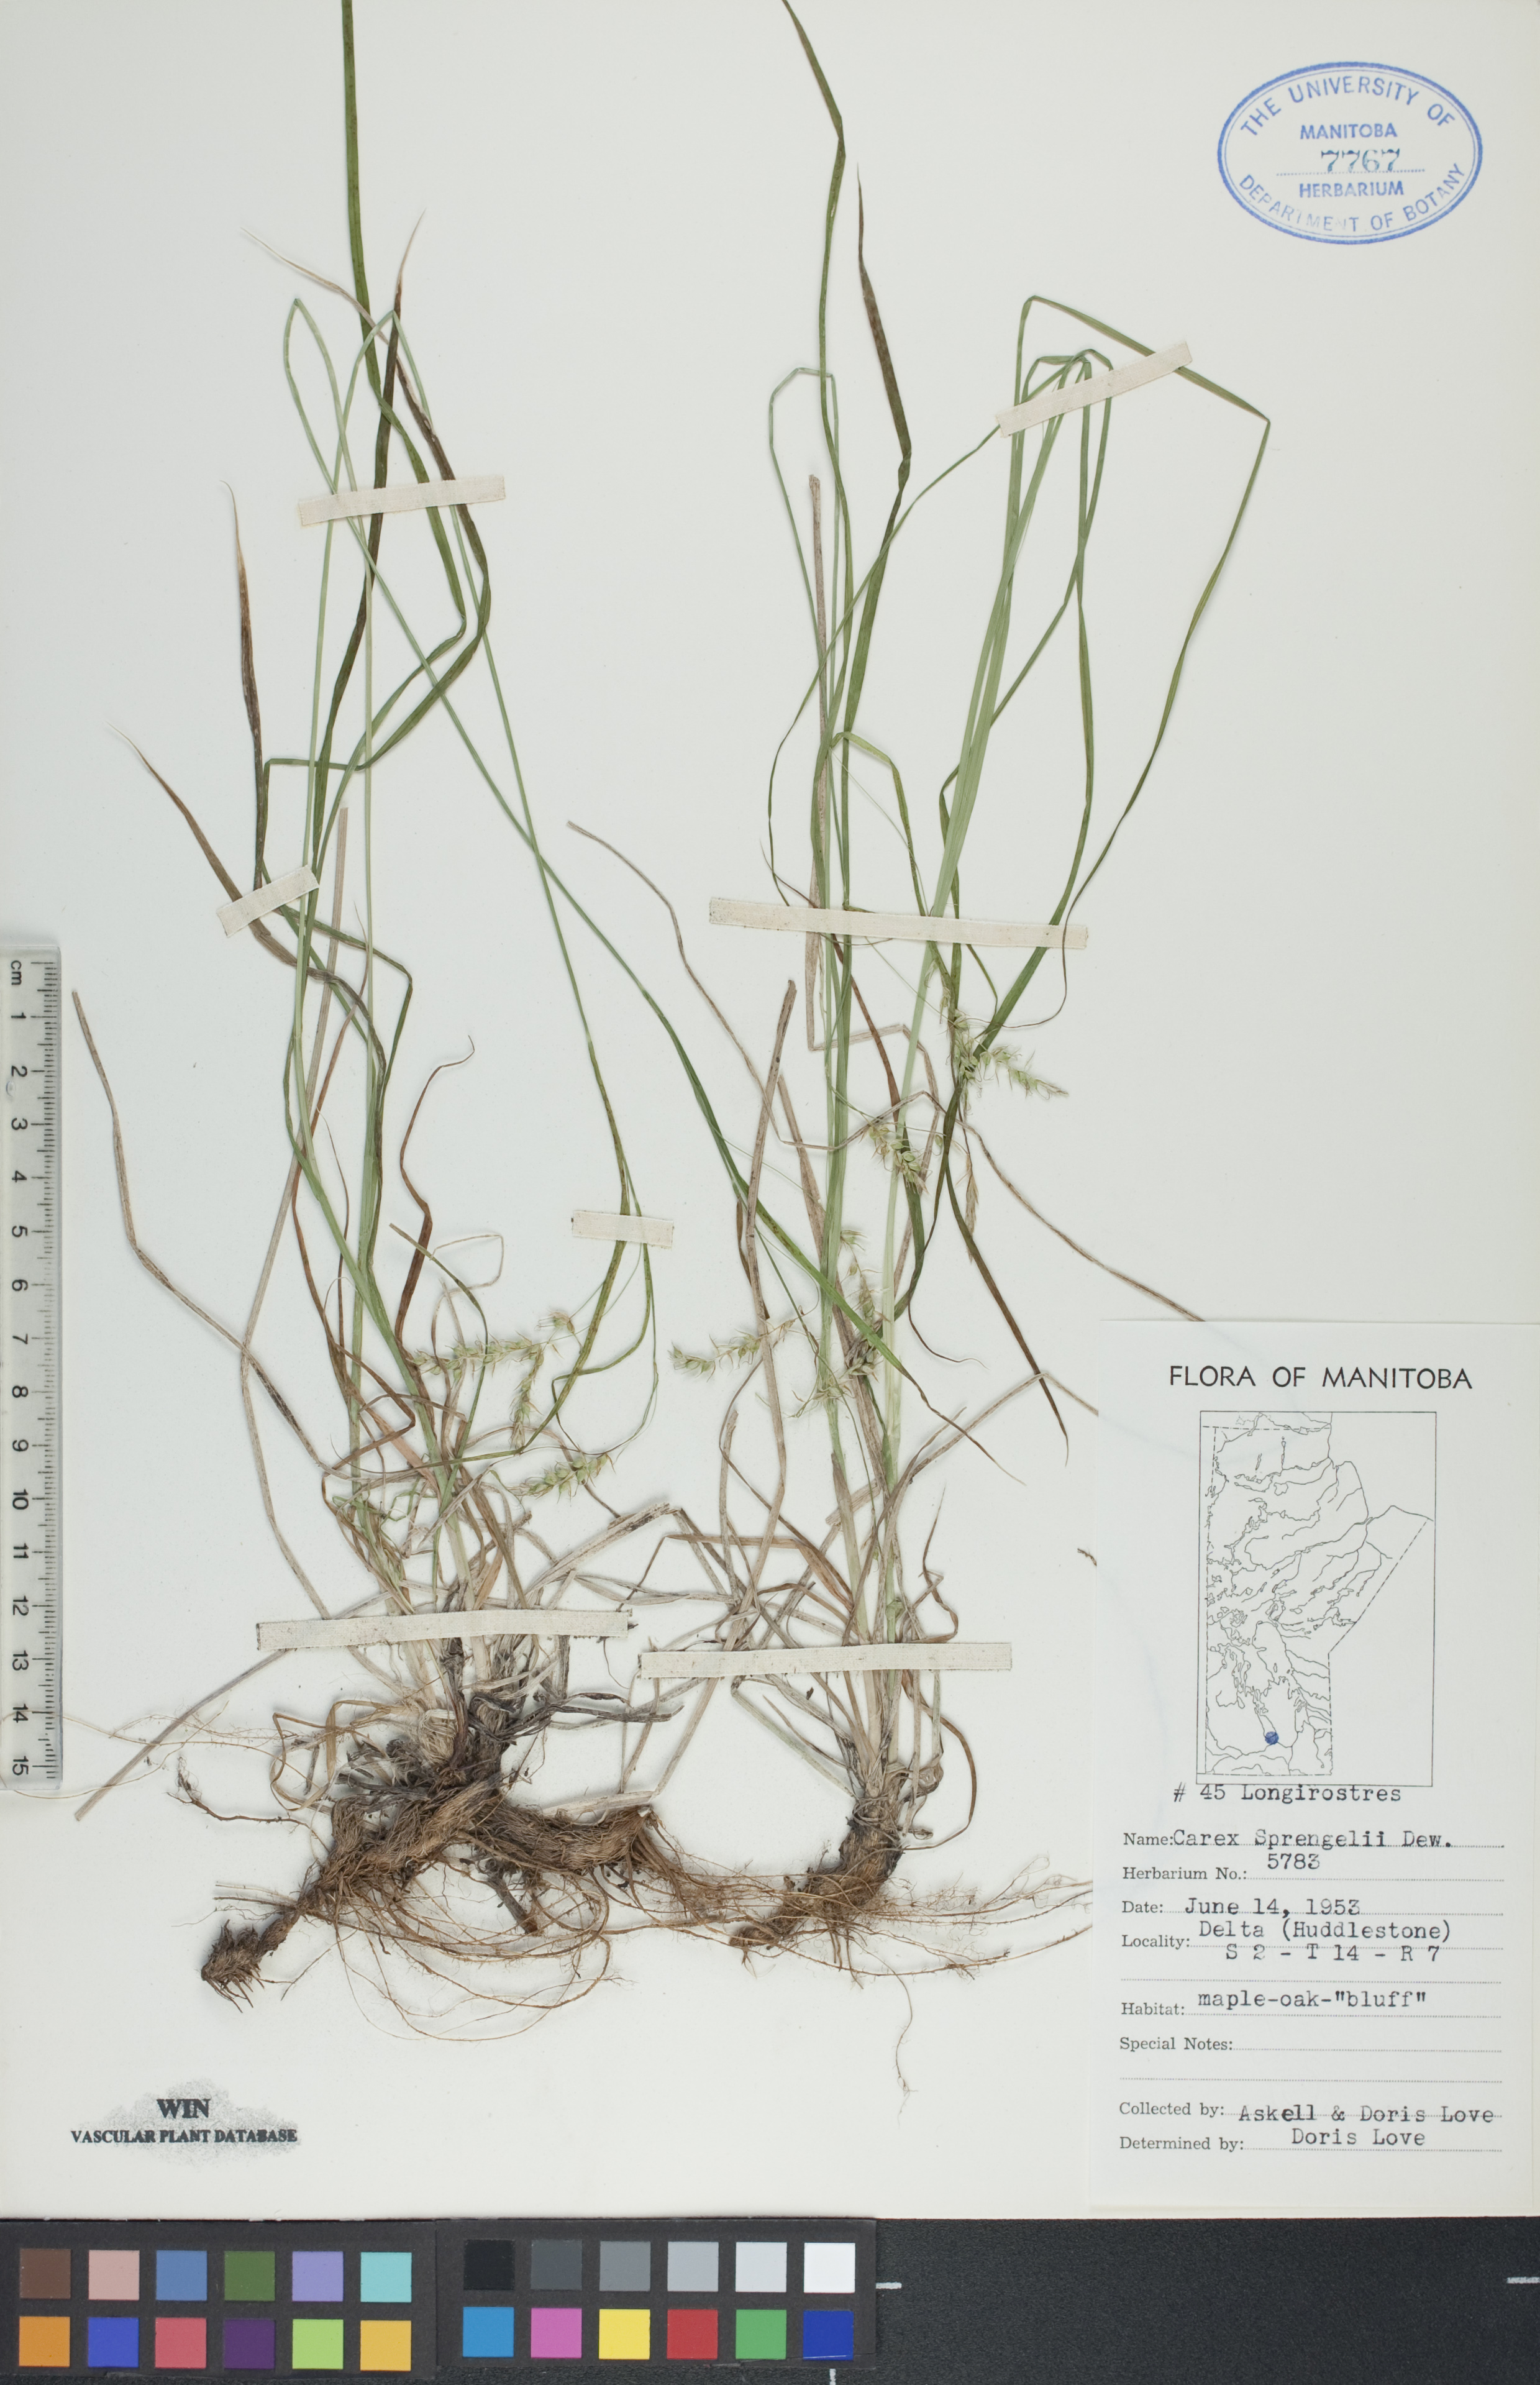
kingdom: Plantae
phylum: Tracheophyta
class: Liliopsida
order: Poales
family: Cyperaceae
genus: Carex
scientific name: Carex sprengelii
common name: Long-beaked sedge
